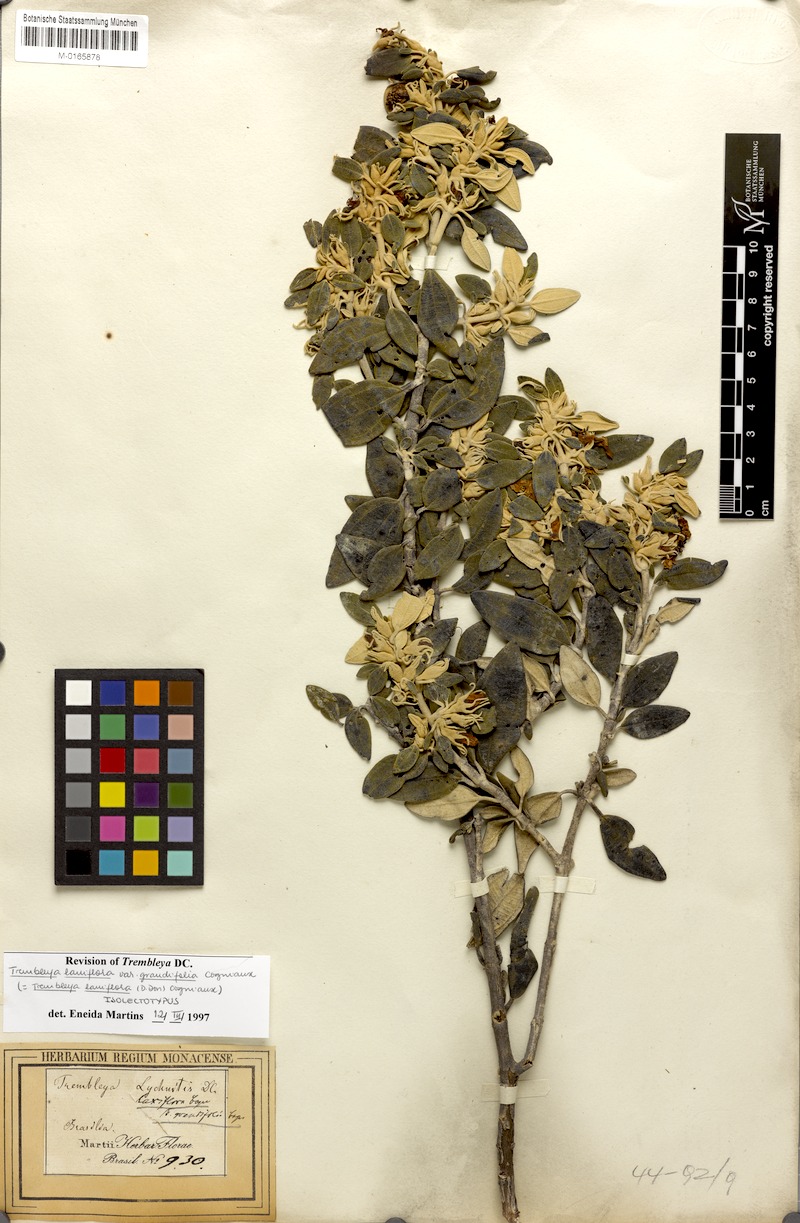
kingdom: Plantae
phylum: Tracheophyta
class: Magnoliopsida
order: Myrtales
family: Melastomataceae
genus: Microlicia
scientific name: Microlicia laniflora
